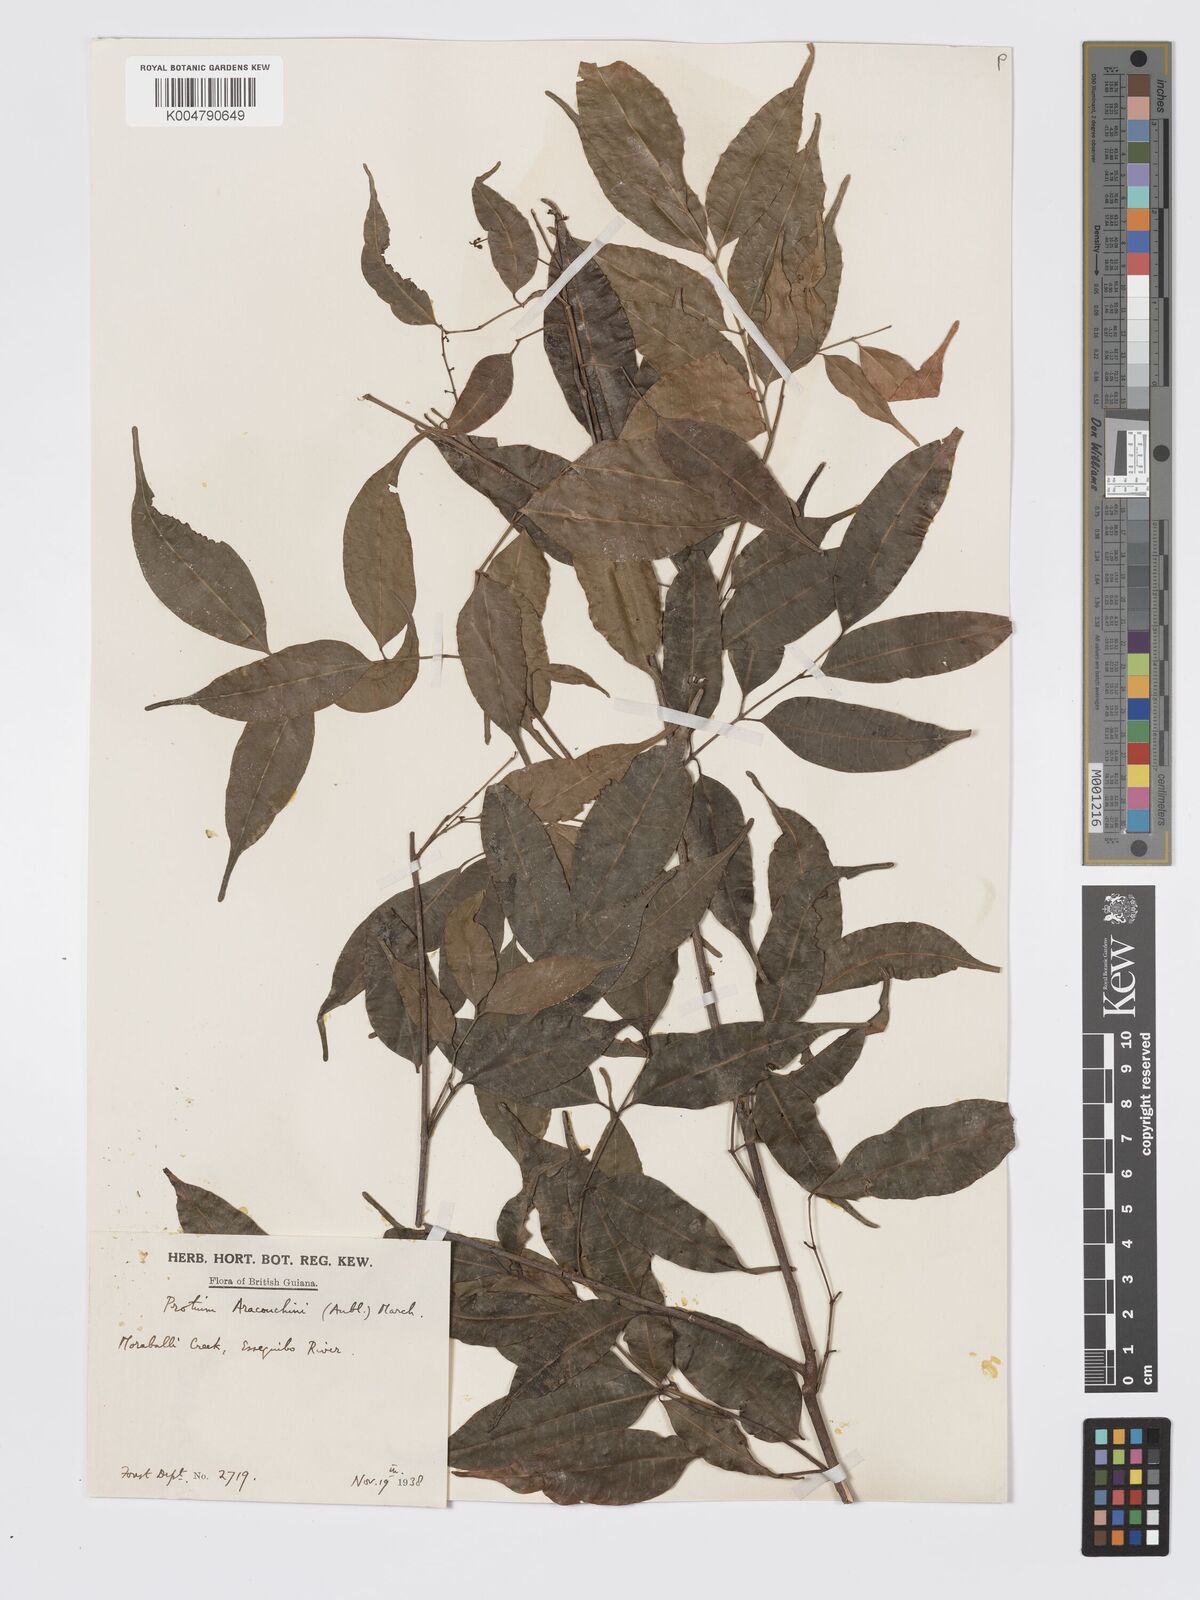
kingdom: Plantae
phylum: Tracheophyta
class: Magnoliopsida
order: Sapindales
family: Burseraceae
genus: Protium
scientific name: Protium aracouchini
